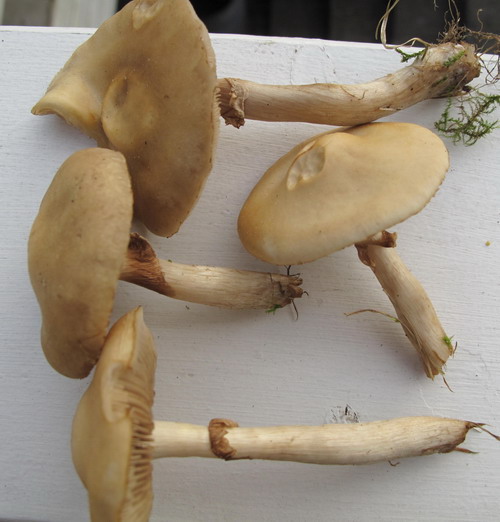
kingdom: Fungi
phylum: Basidiomycota
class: Agaricomycetes
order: Agaricales
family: Strophariaceae
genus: Agrocybe
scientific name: Agrocybe praecox
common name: tidlig agerhat
